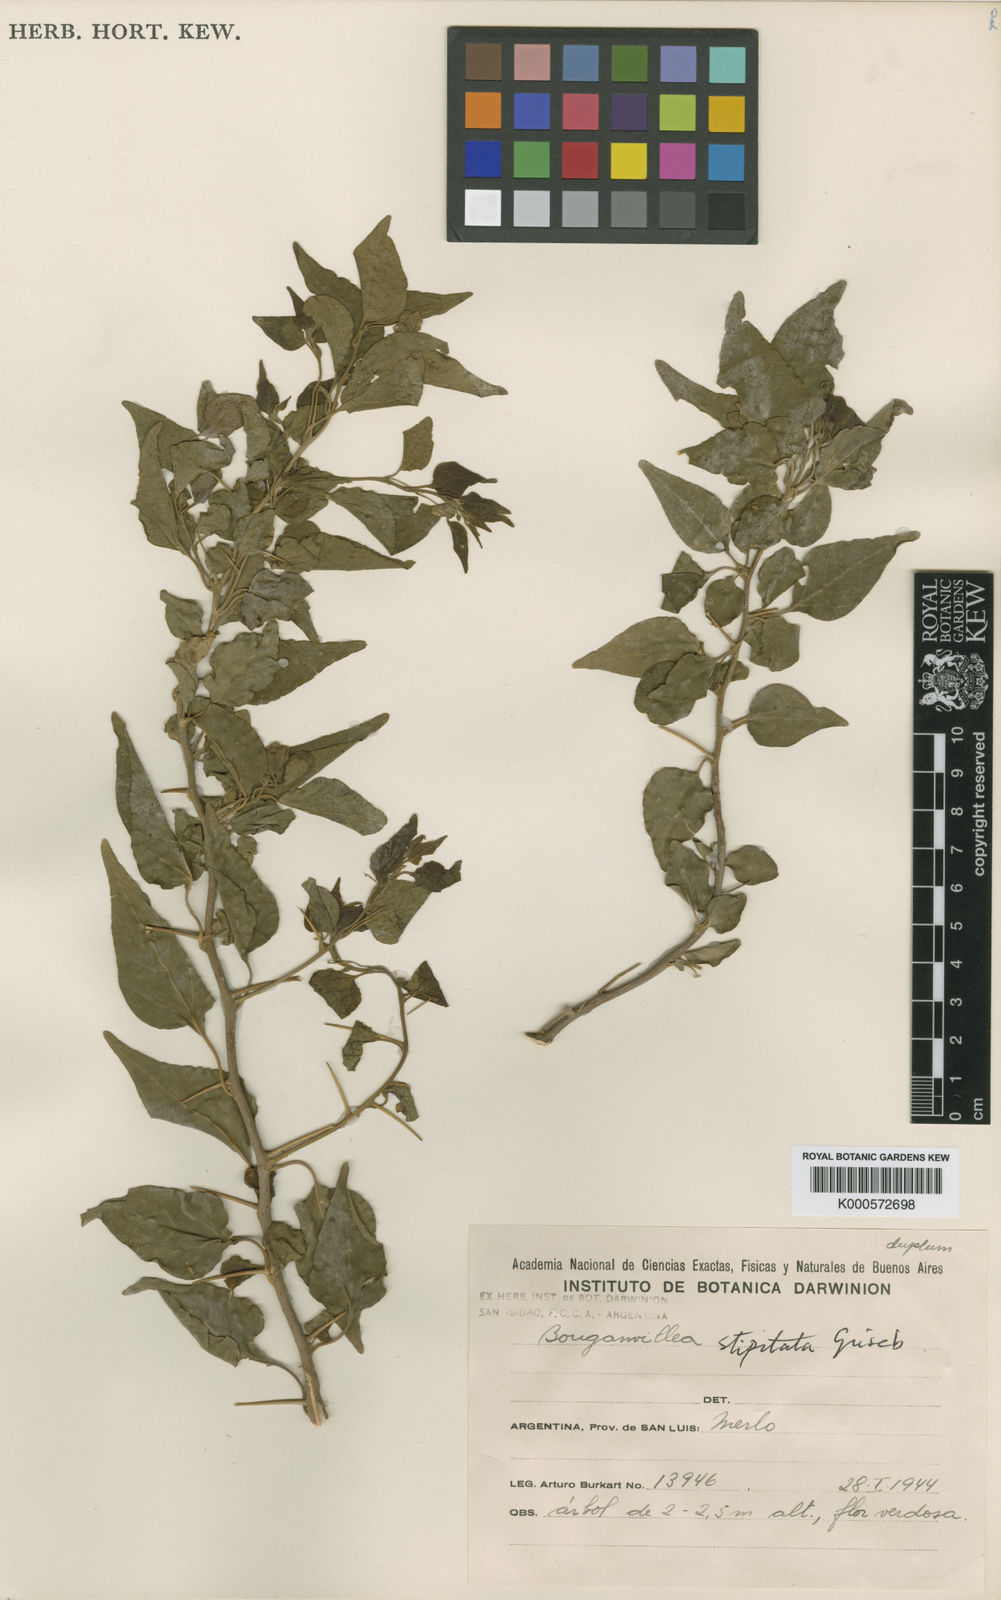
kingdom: Plantae
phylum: Tracheophyta
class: Magnoliopsida
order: Caryophyllales
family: Nyctaginaceae
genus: Bougainvillea
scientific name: Bougainvillea stipitata
